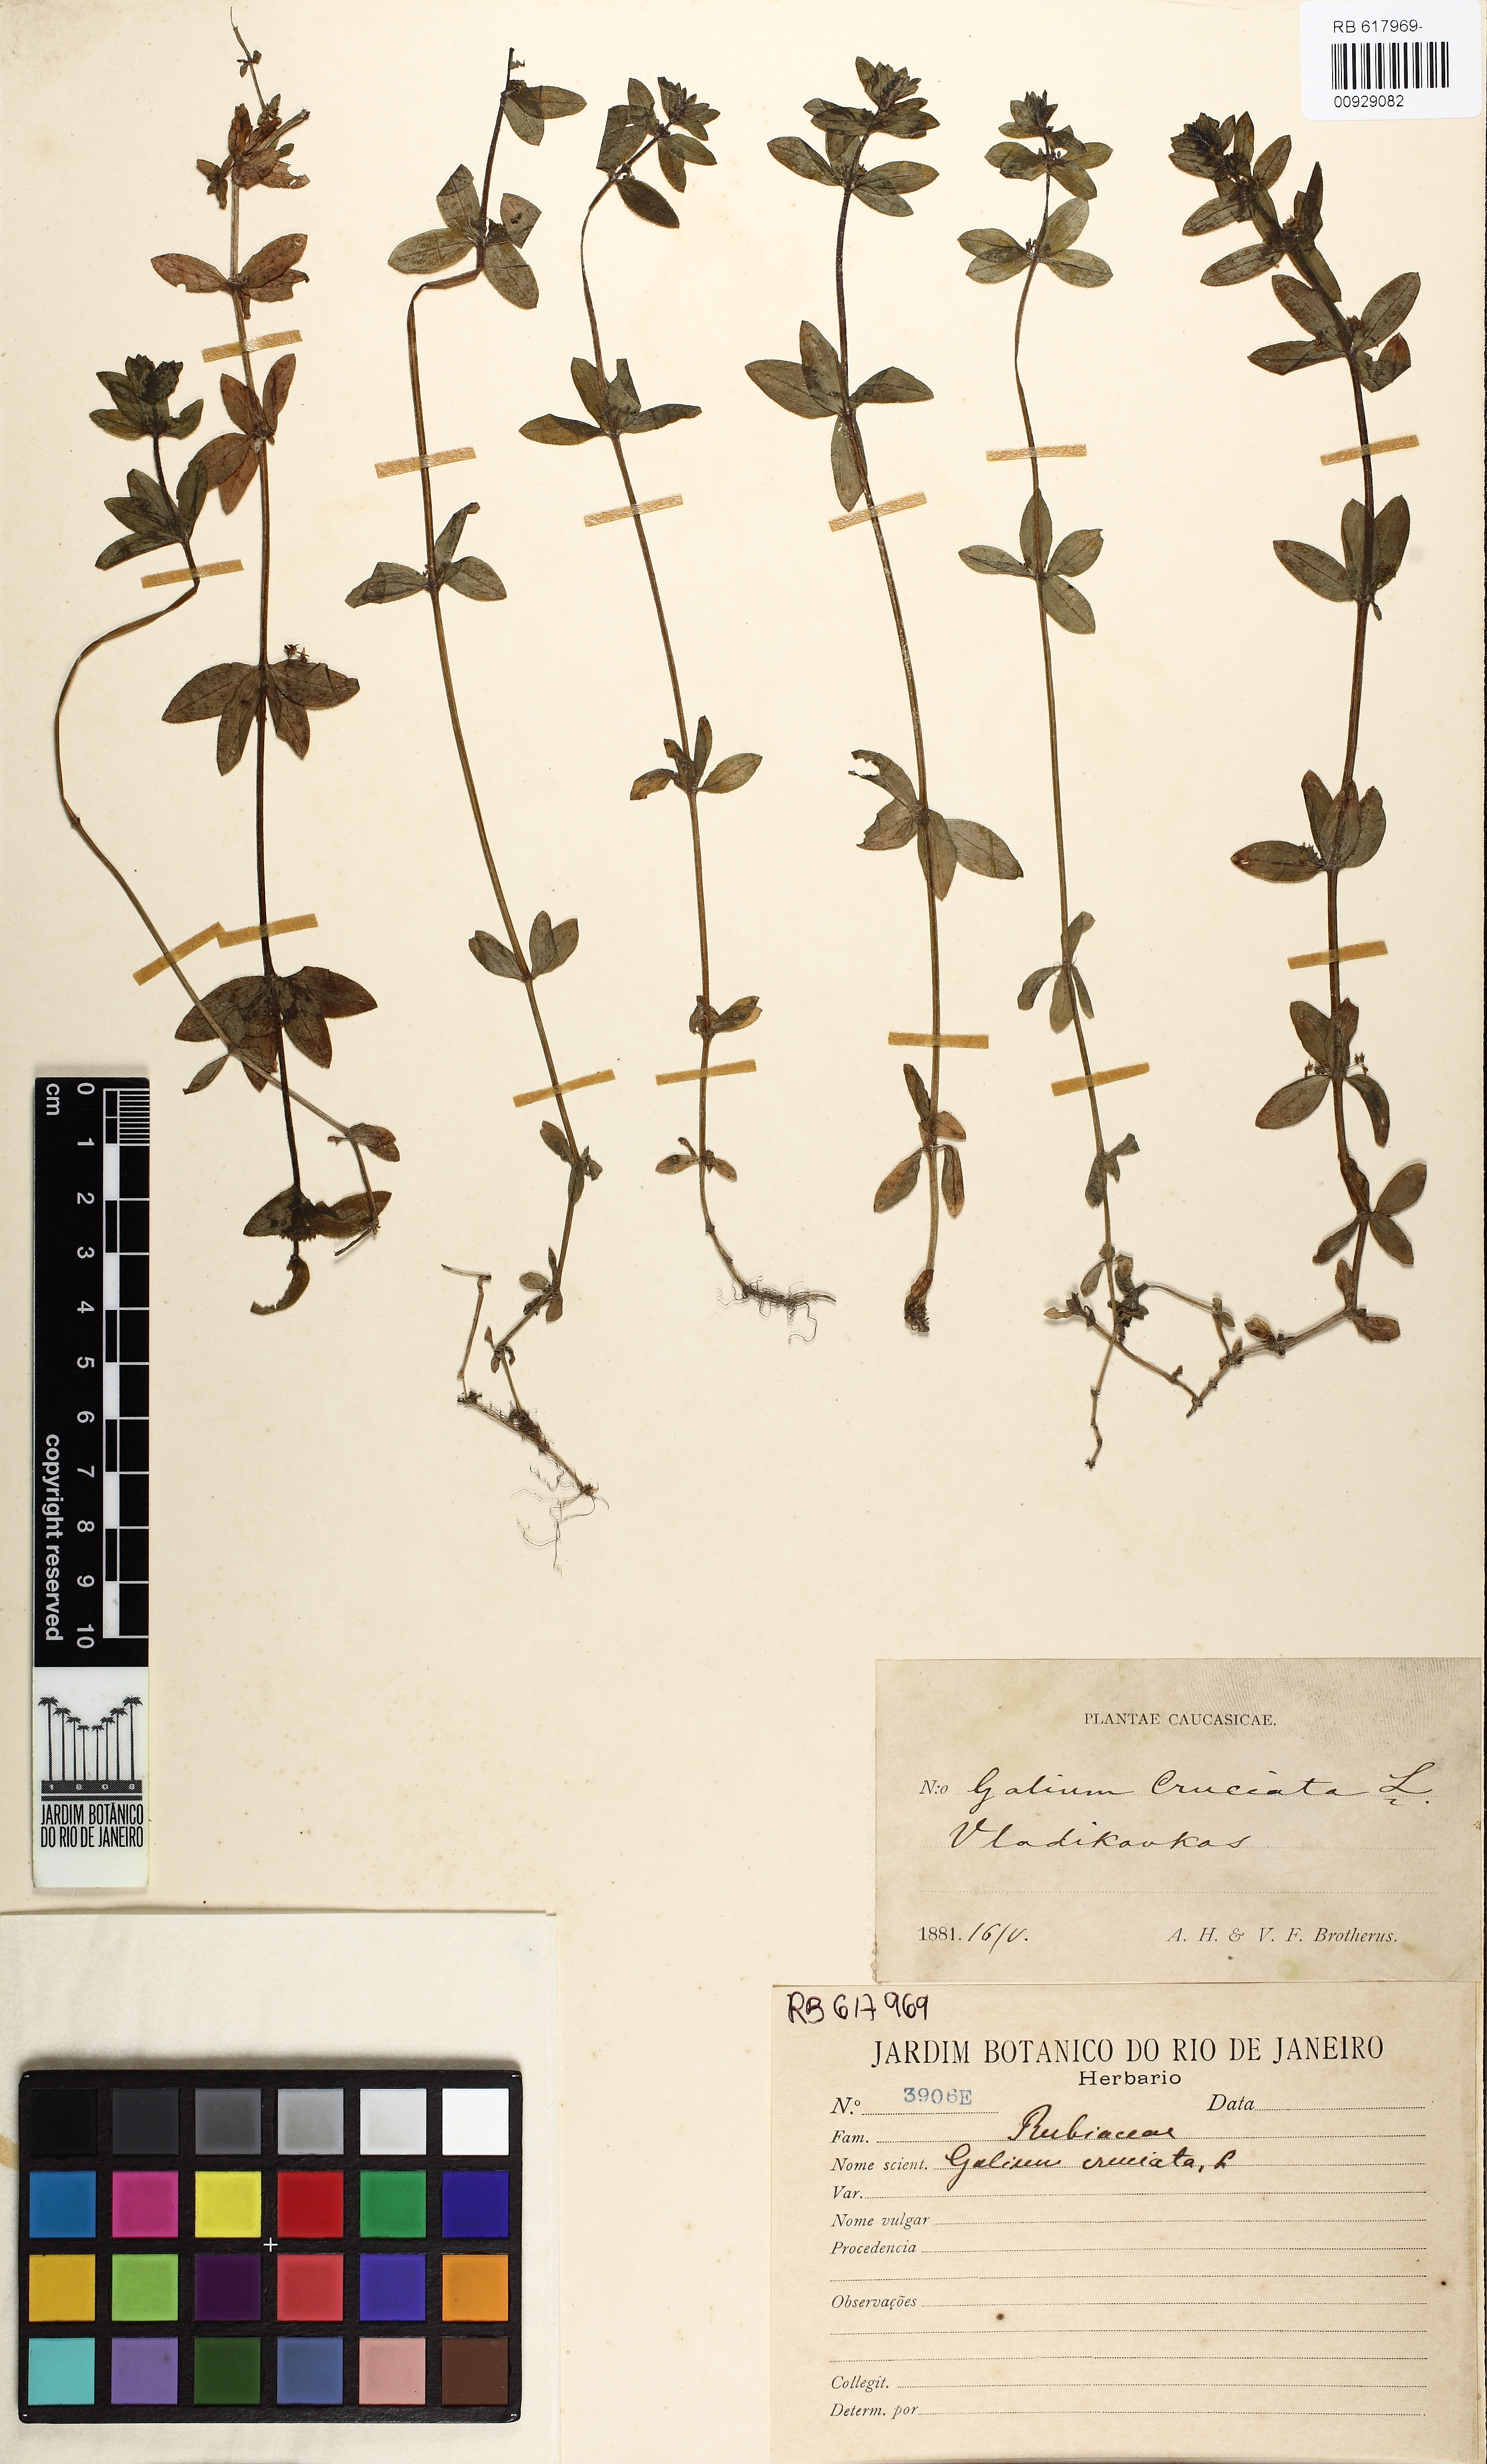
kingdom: Plantae
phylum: Tracheophyta
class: Magnoliopsida
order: Gentianales
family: Rubiaceae
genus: Cruciata
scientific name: Cruciata laevipes
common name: Crosswort
